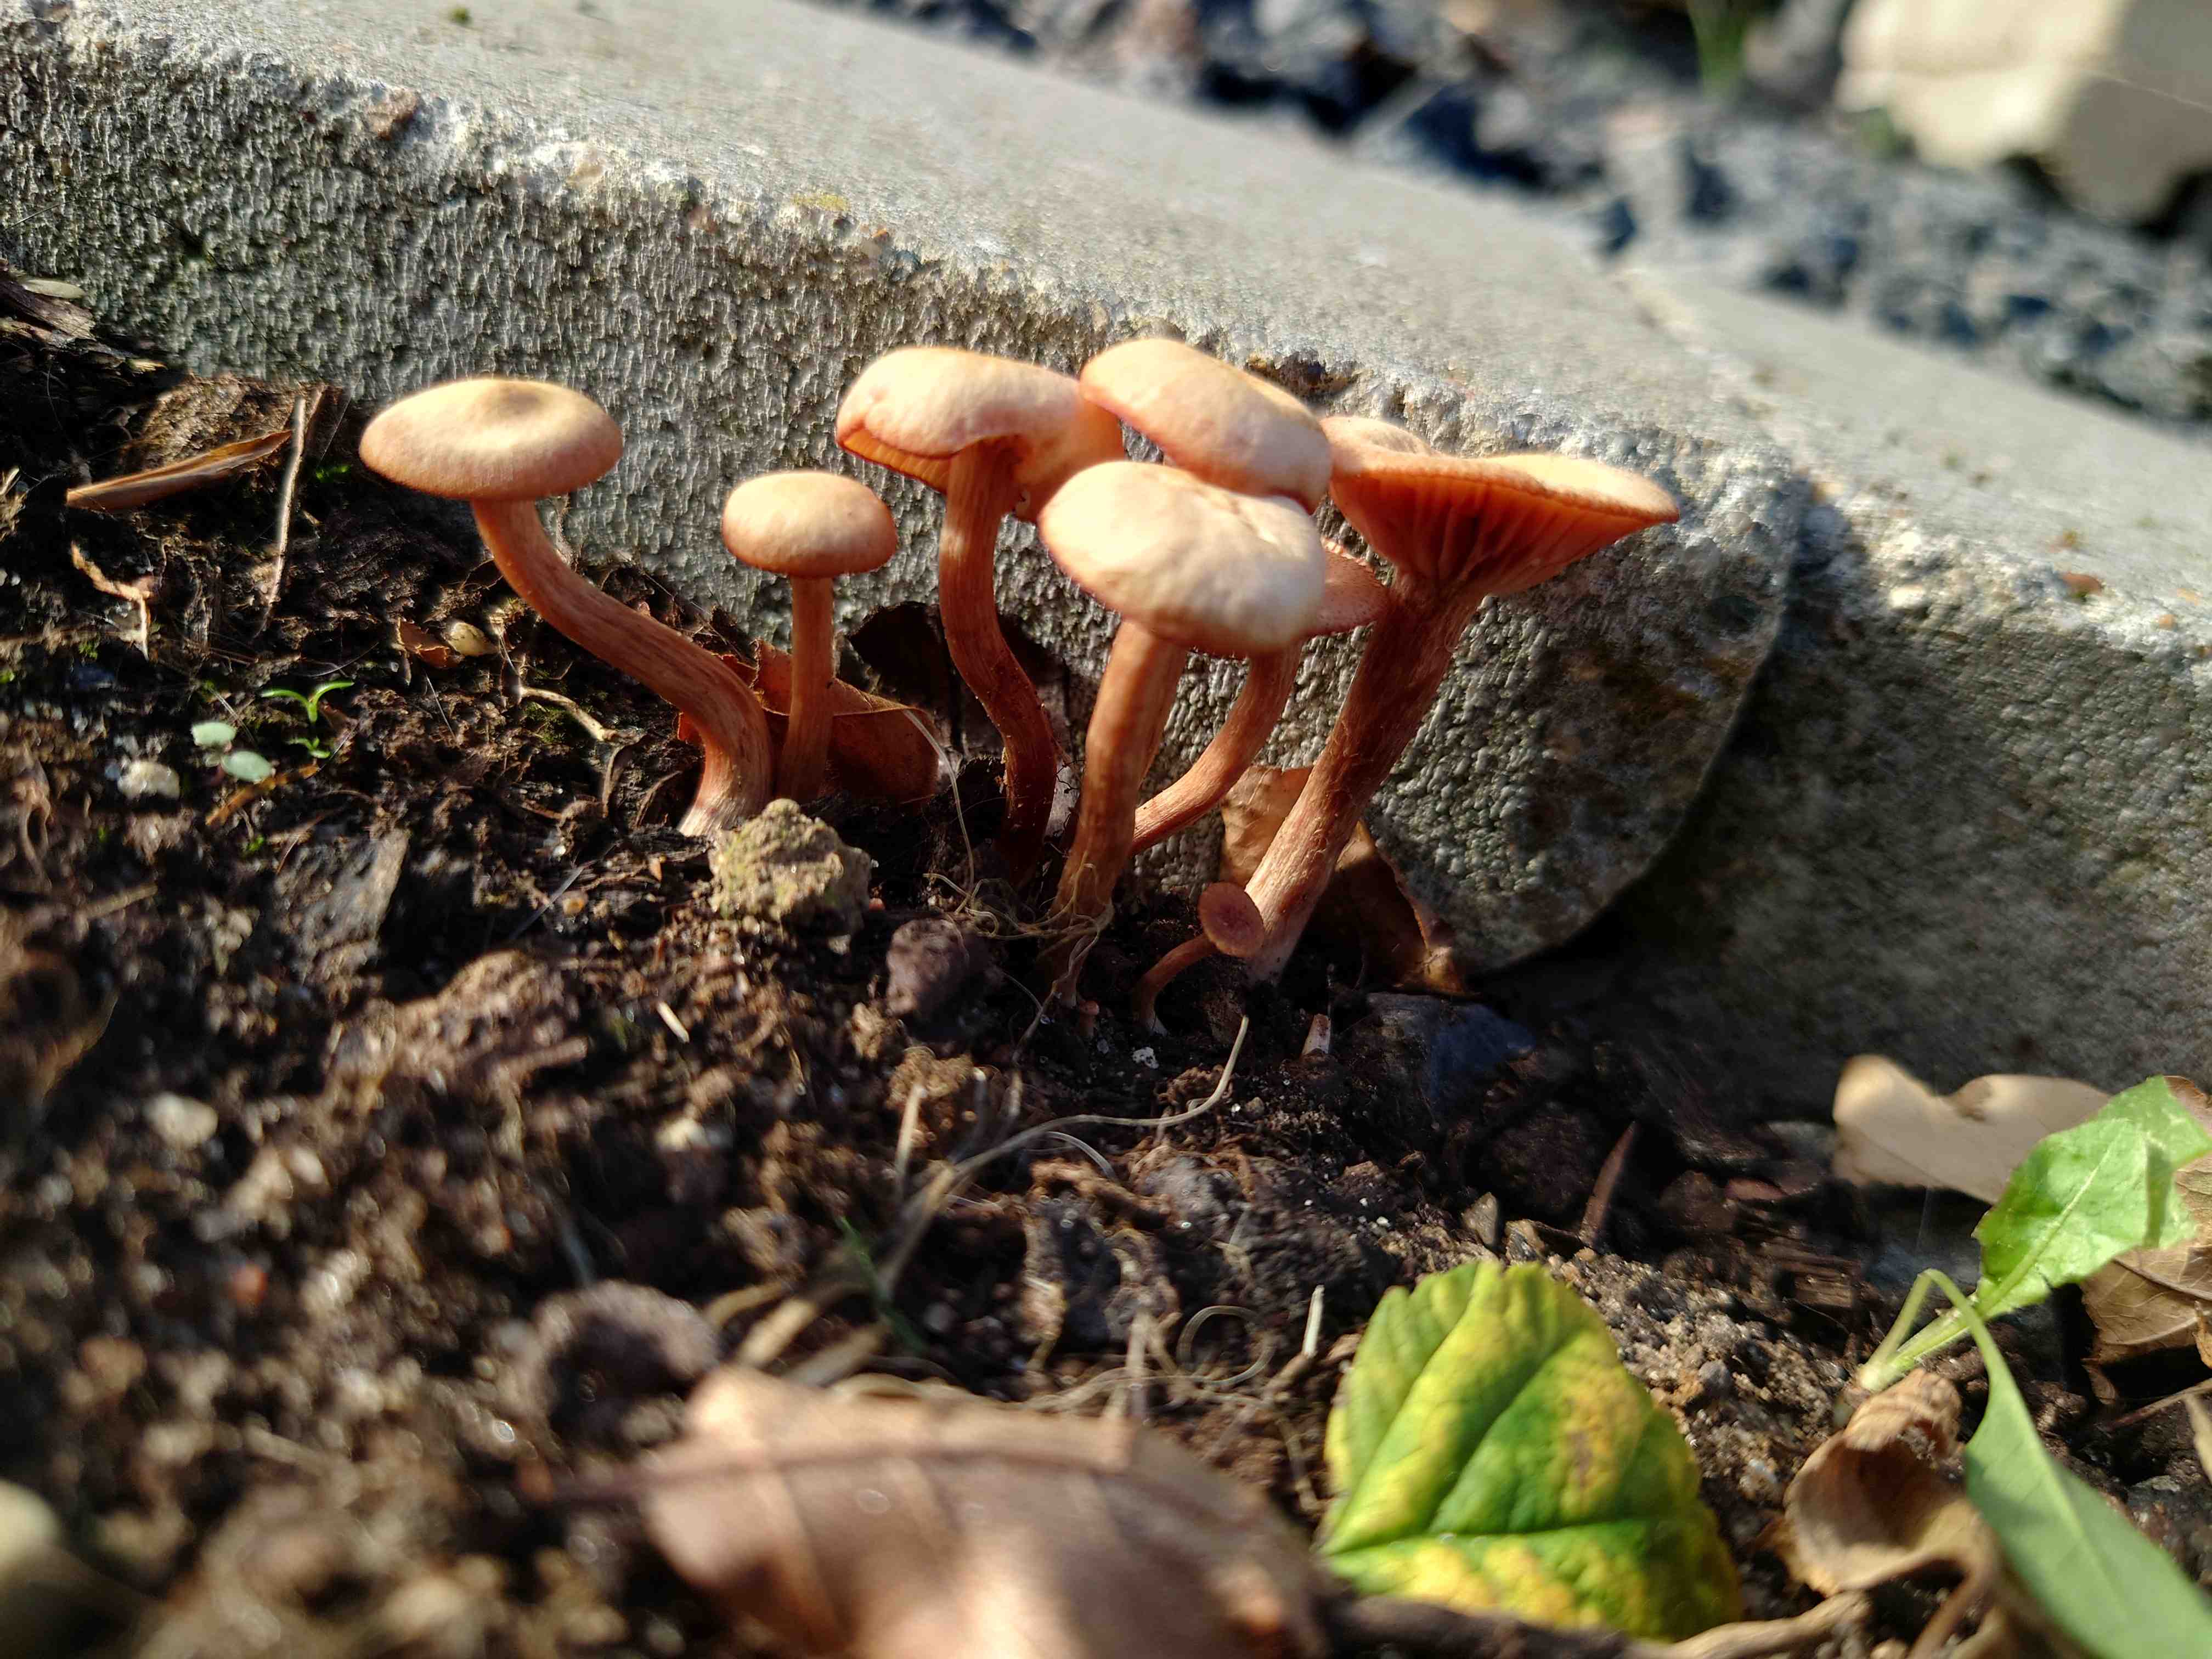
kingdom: Fungi
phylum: Basidiomycota
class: Agaricomycetes
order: Agaricales
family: Hydnangiaceae
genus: Laccaria
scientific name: Laccaria laccata
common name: rød ametysthat
